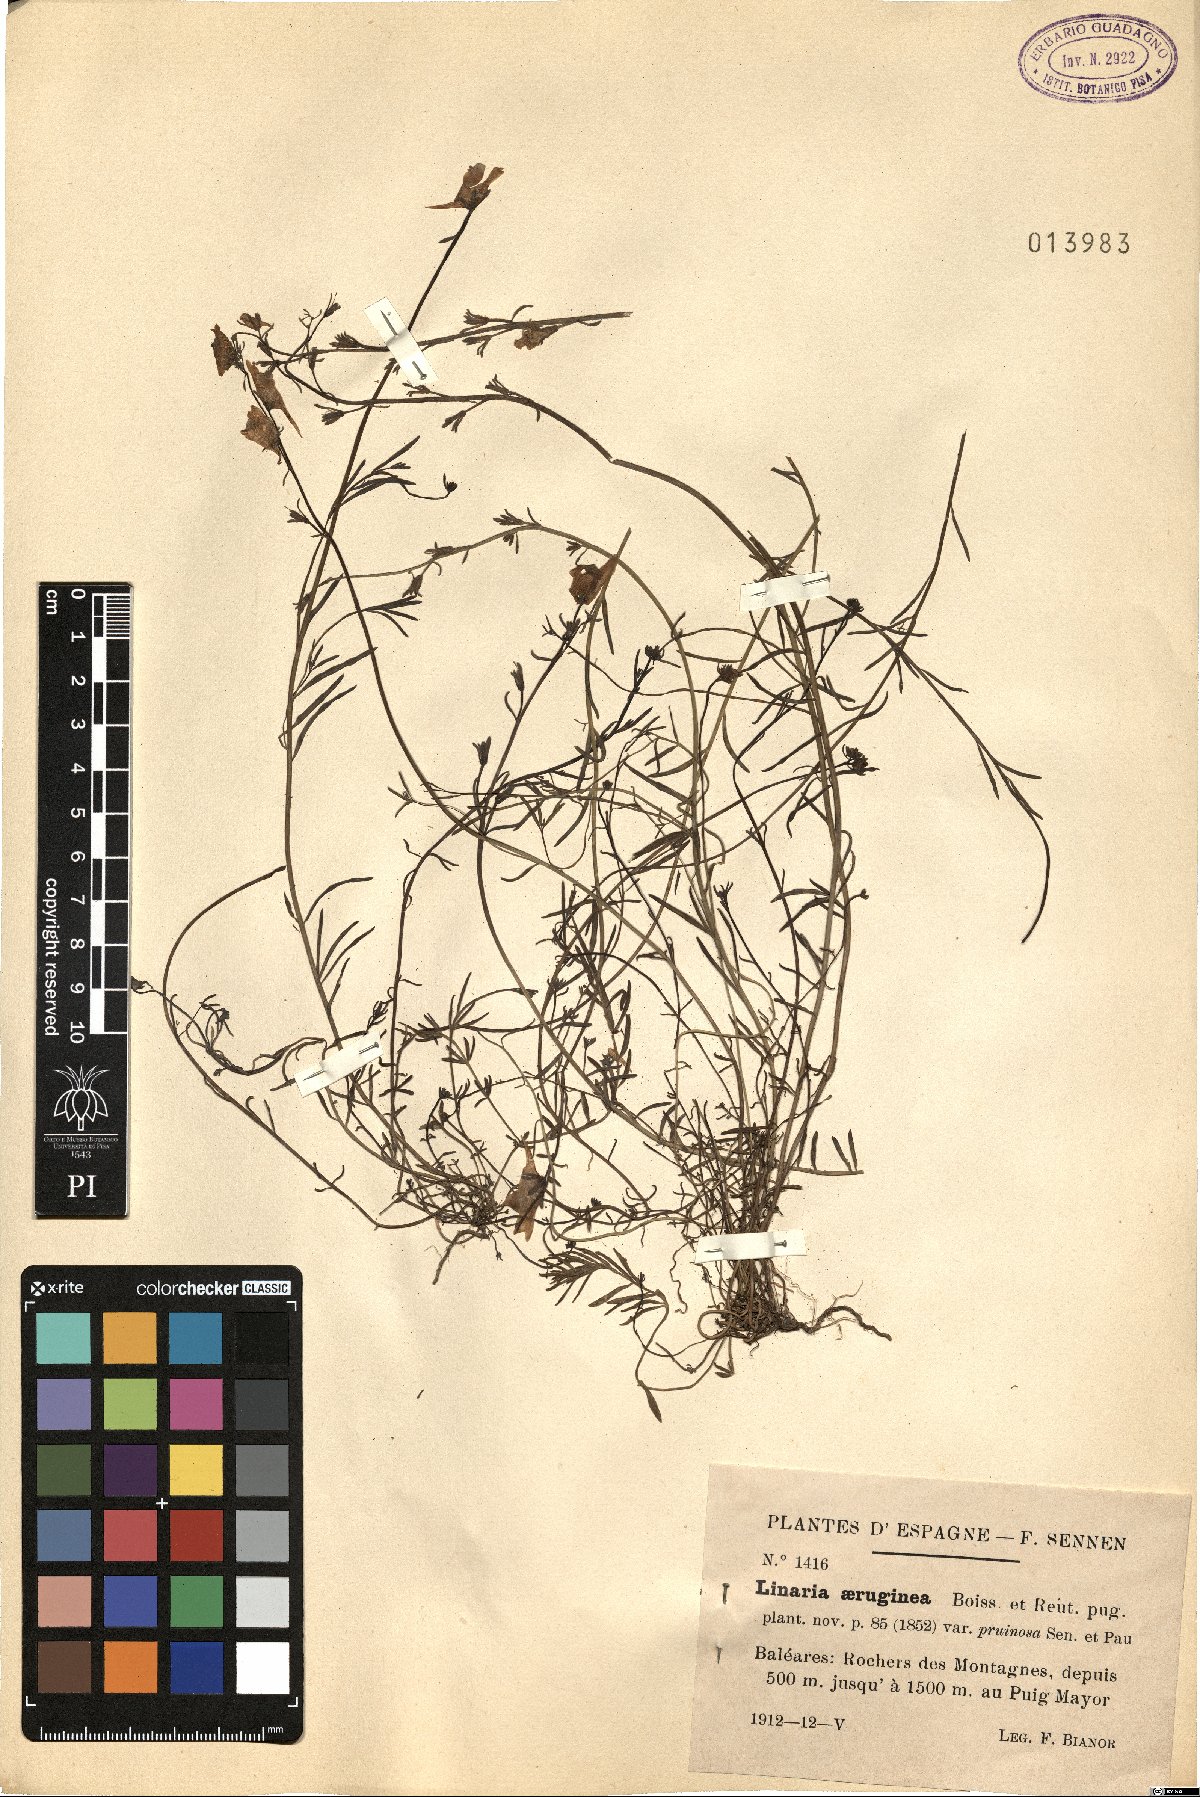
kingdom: Plantae
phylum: Tracheophyta
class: Magnoliopsida
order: Lamiales
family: Plantaginaceae
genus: Linaria
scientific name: Linaria aeruginea
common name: Roadside toadflax
